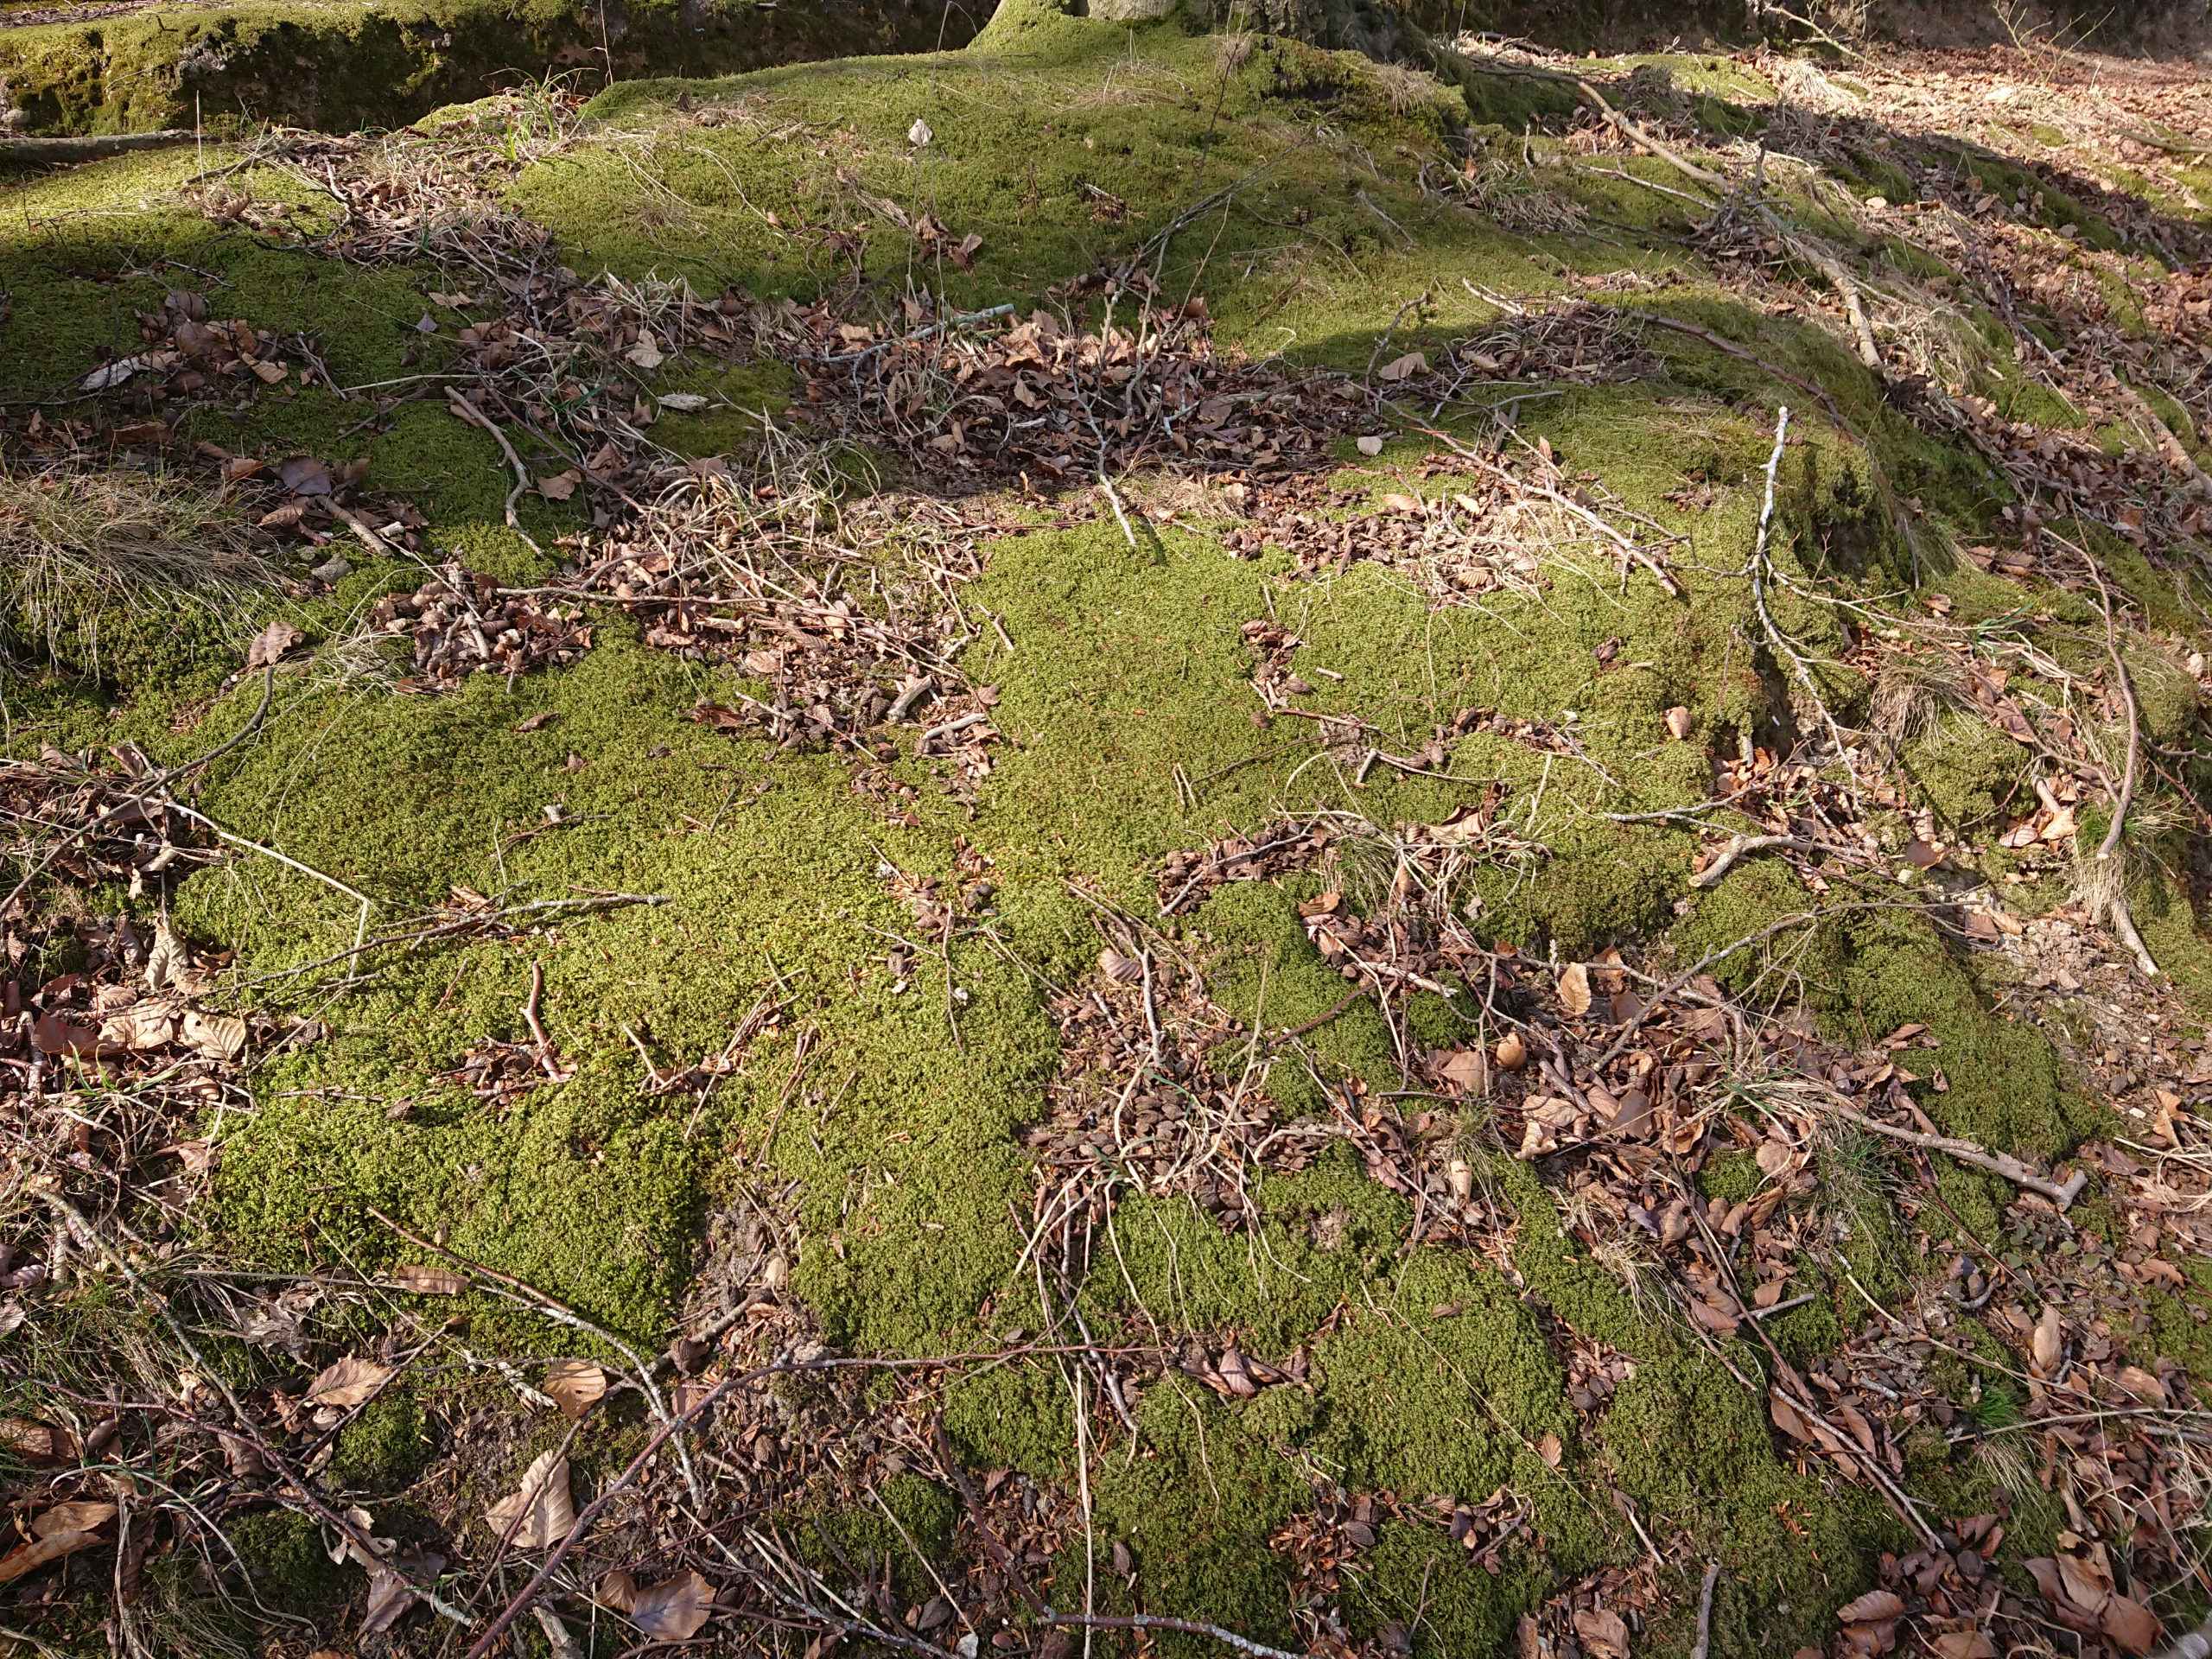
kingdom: Plantae
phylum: Bryophyta
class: Bryopsida
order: Hypnales
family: Lembophyllaceae
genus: Pseudisothecium
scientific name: Pseudisothecium myosuroides
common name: Slank stammemos
